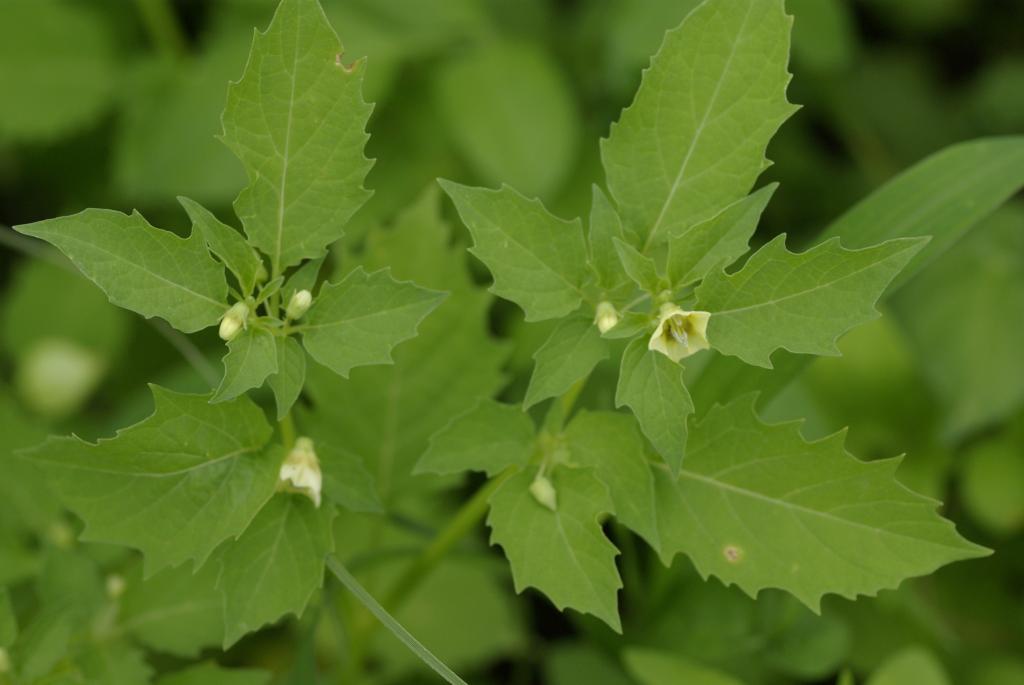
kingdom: Plantae
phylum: Tracheophyta
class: Magnoliopsida
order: Solanales
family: Solanaceae
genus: Physalis
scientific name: Physalis angulata
